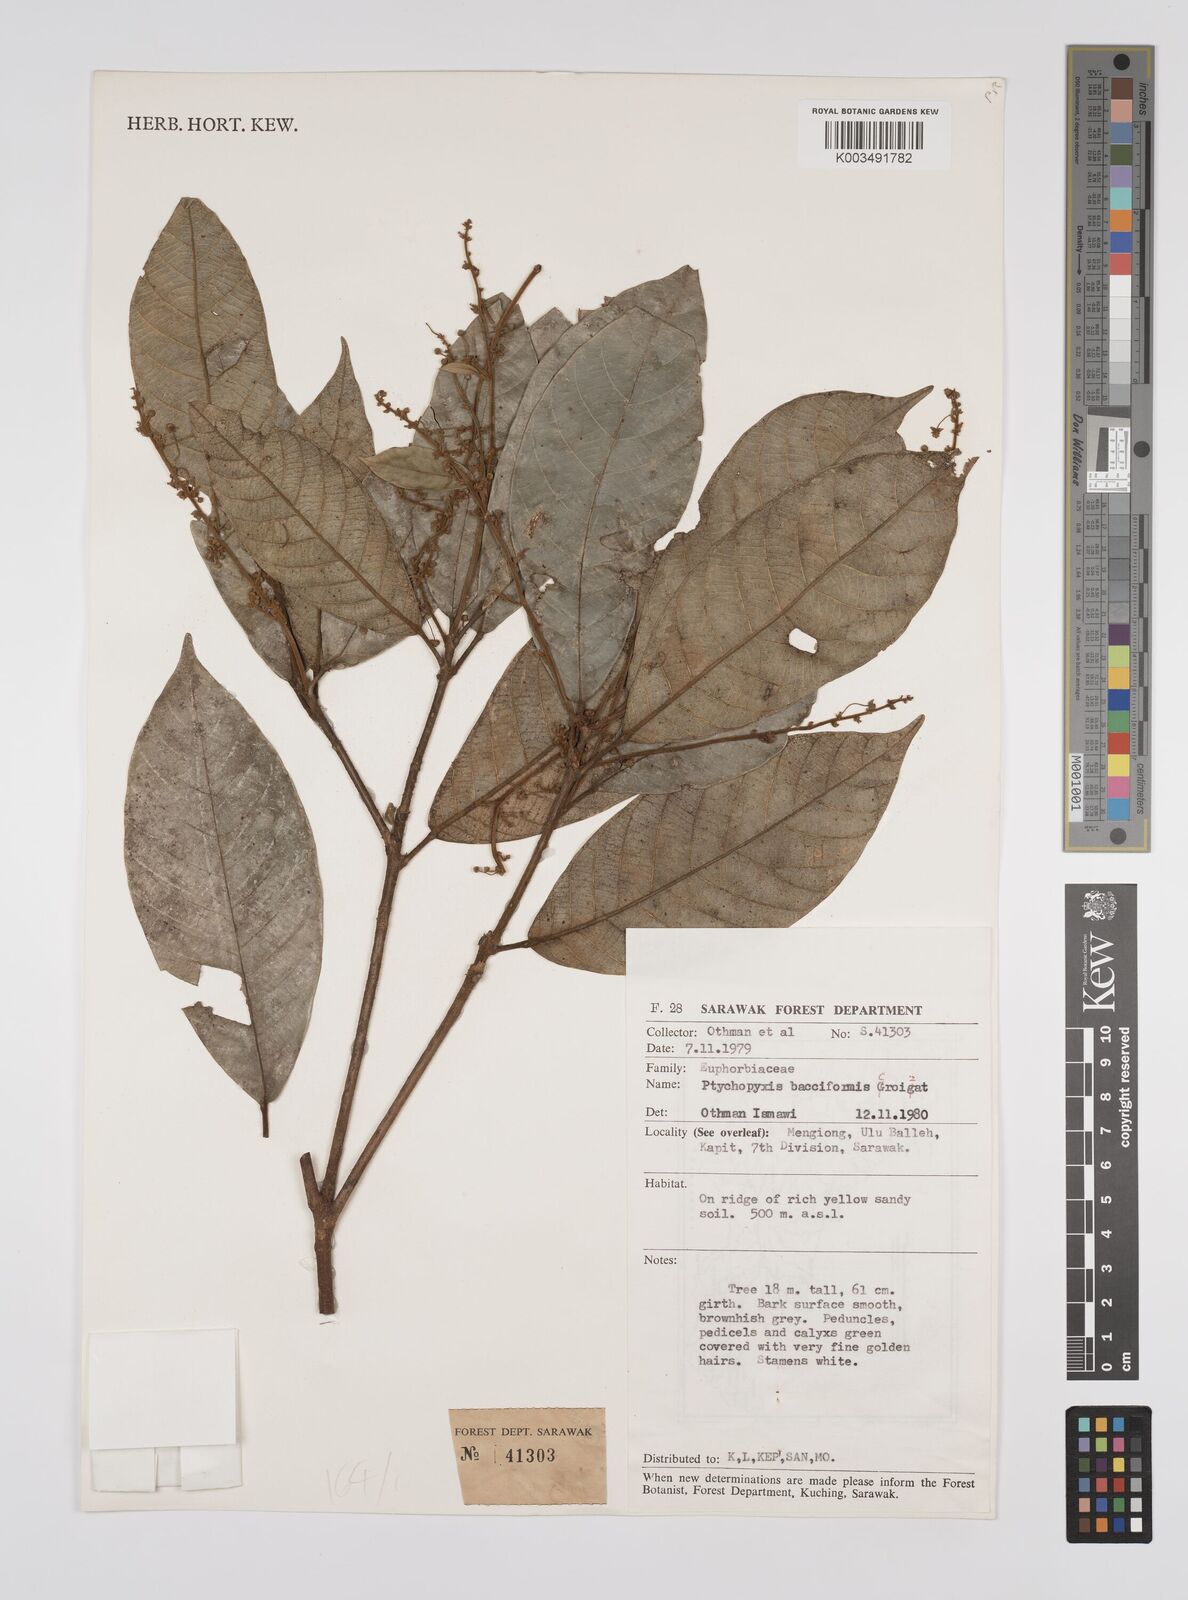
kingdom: Plantae
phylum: Tracheophyta
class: Magnoliopsida
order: Malpighiales
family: Euphorbiaceae
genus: Ptychopyxis
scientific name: Ptychopyxis bacciformis
